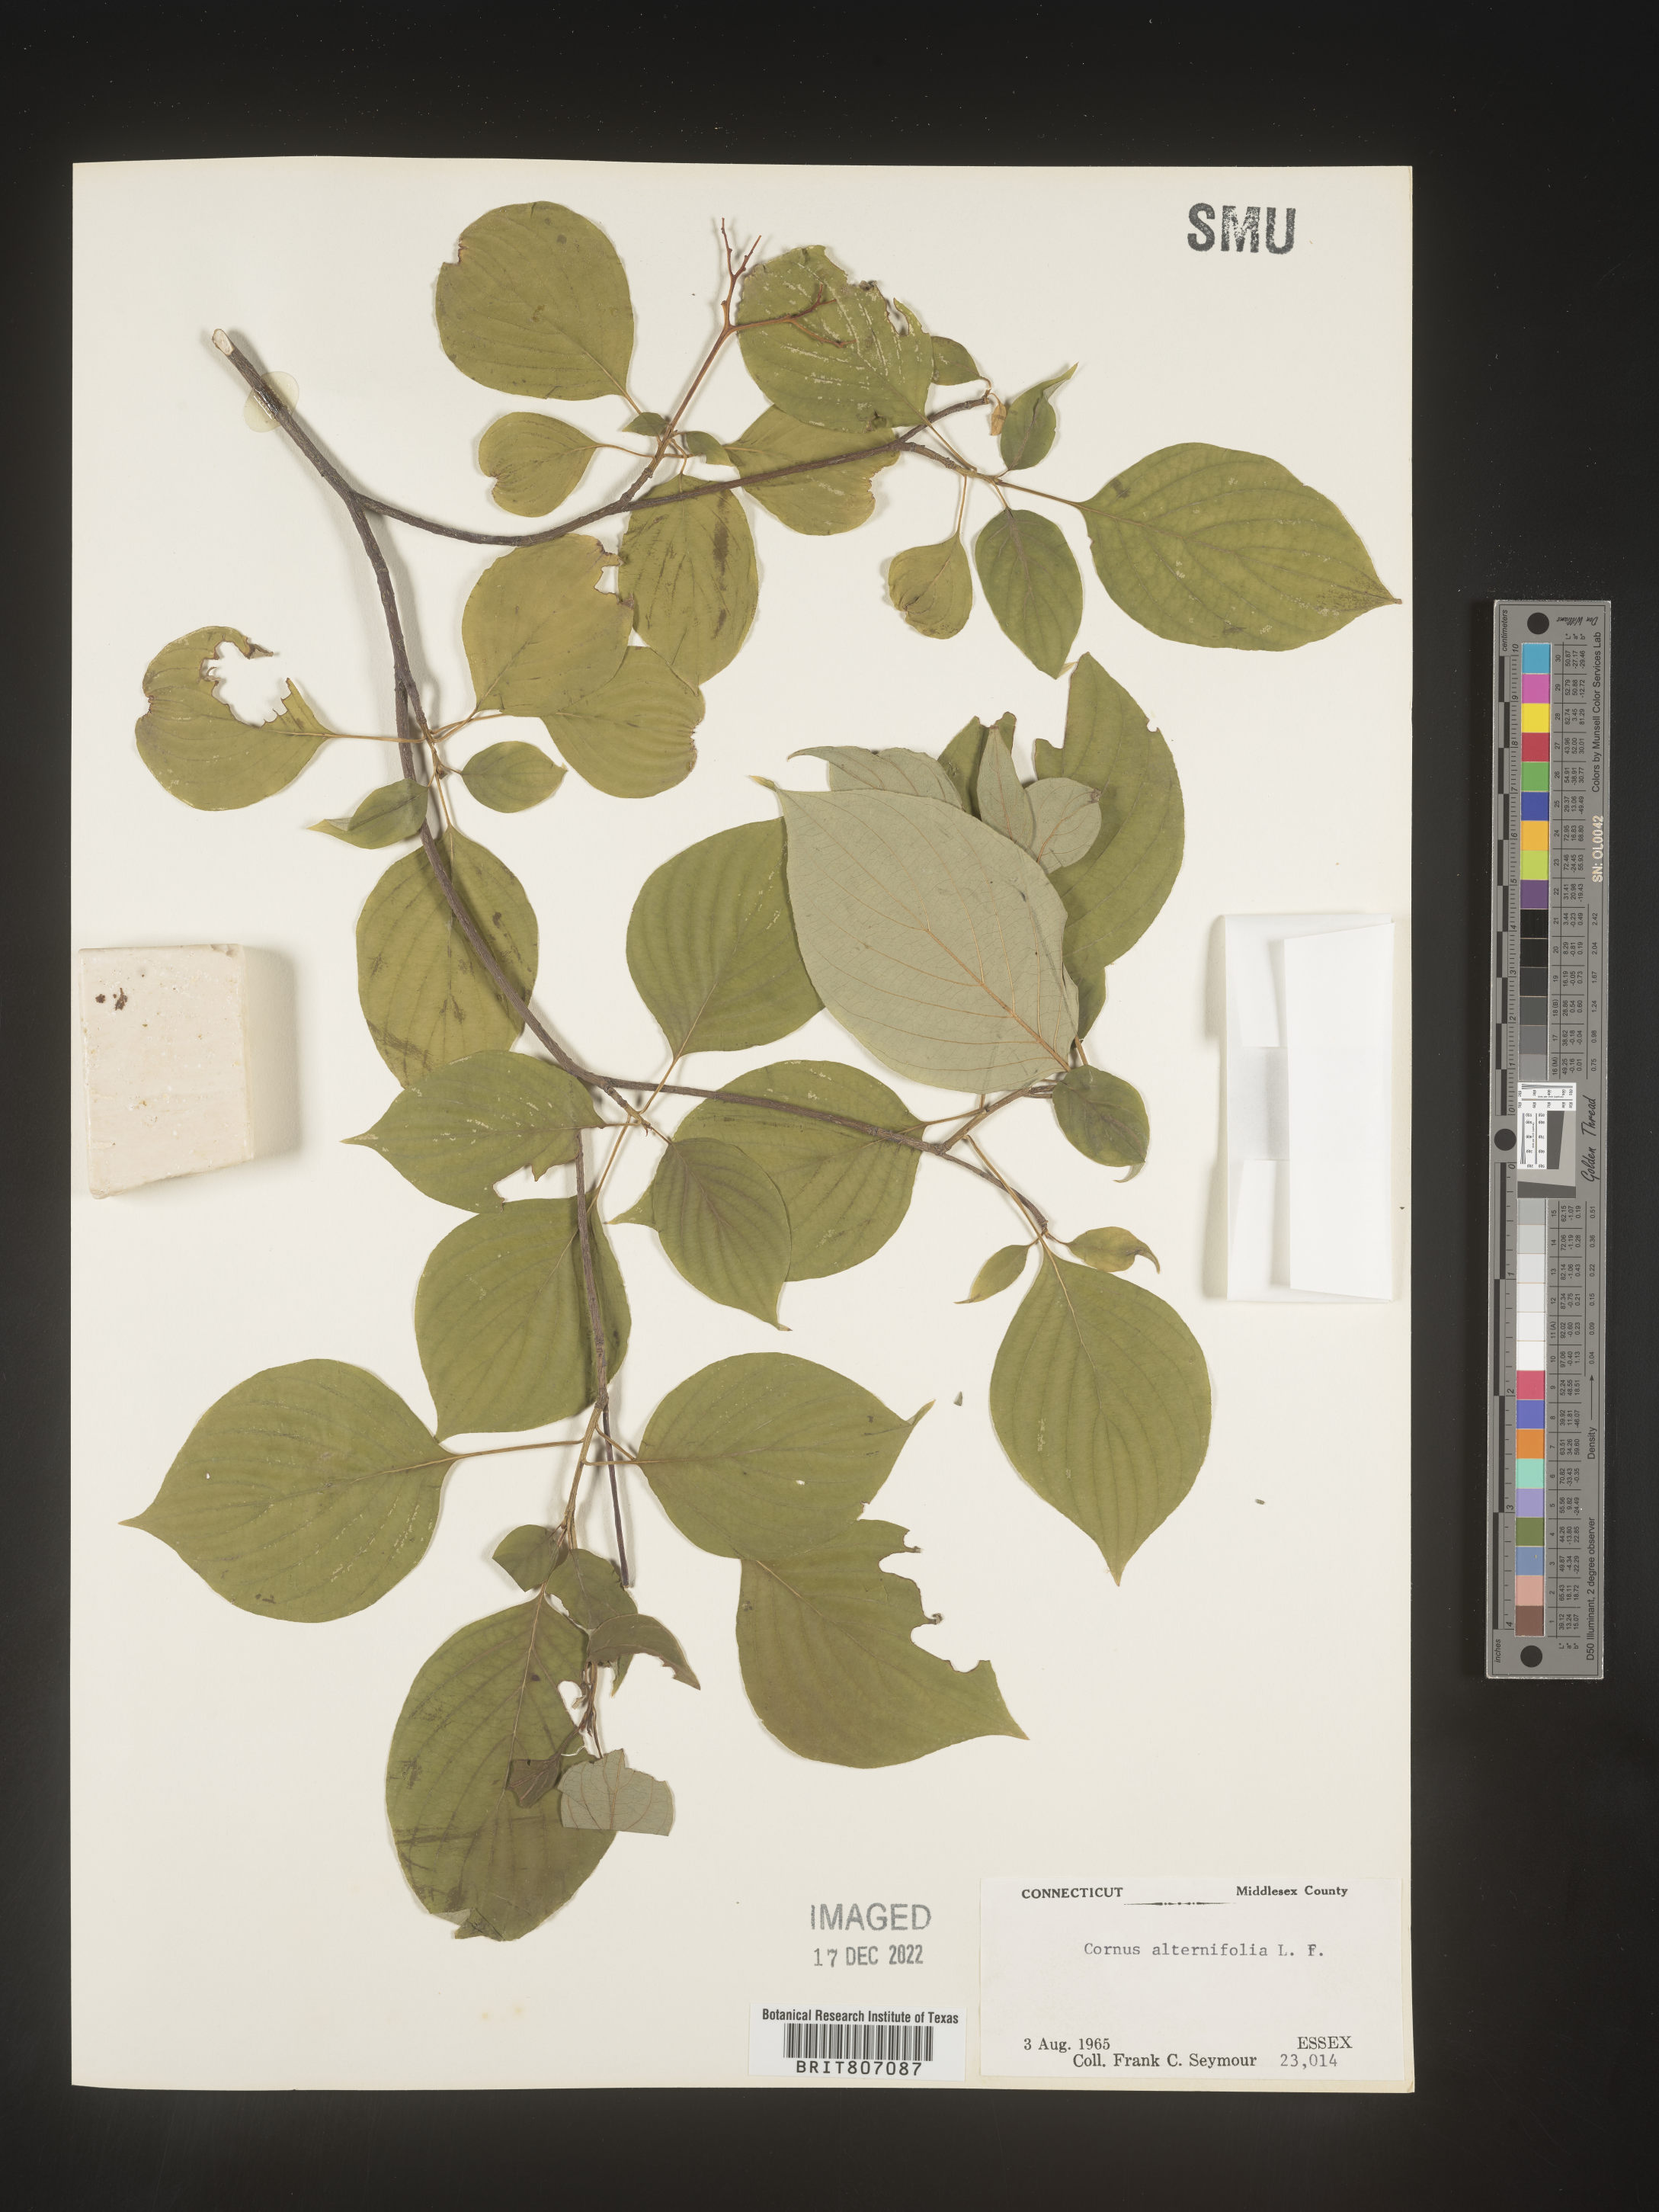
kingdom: Plantae
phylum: Tracheophyta
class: Magnoliopsida
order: Cornales
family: Cornaceae
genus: Cornus
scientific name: Cornus alternifolia
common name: Pagoda dogwood
